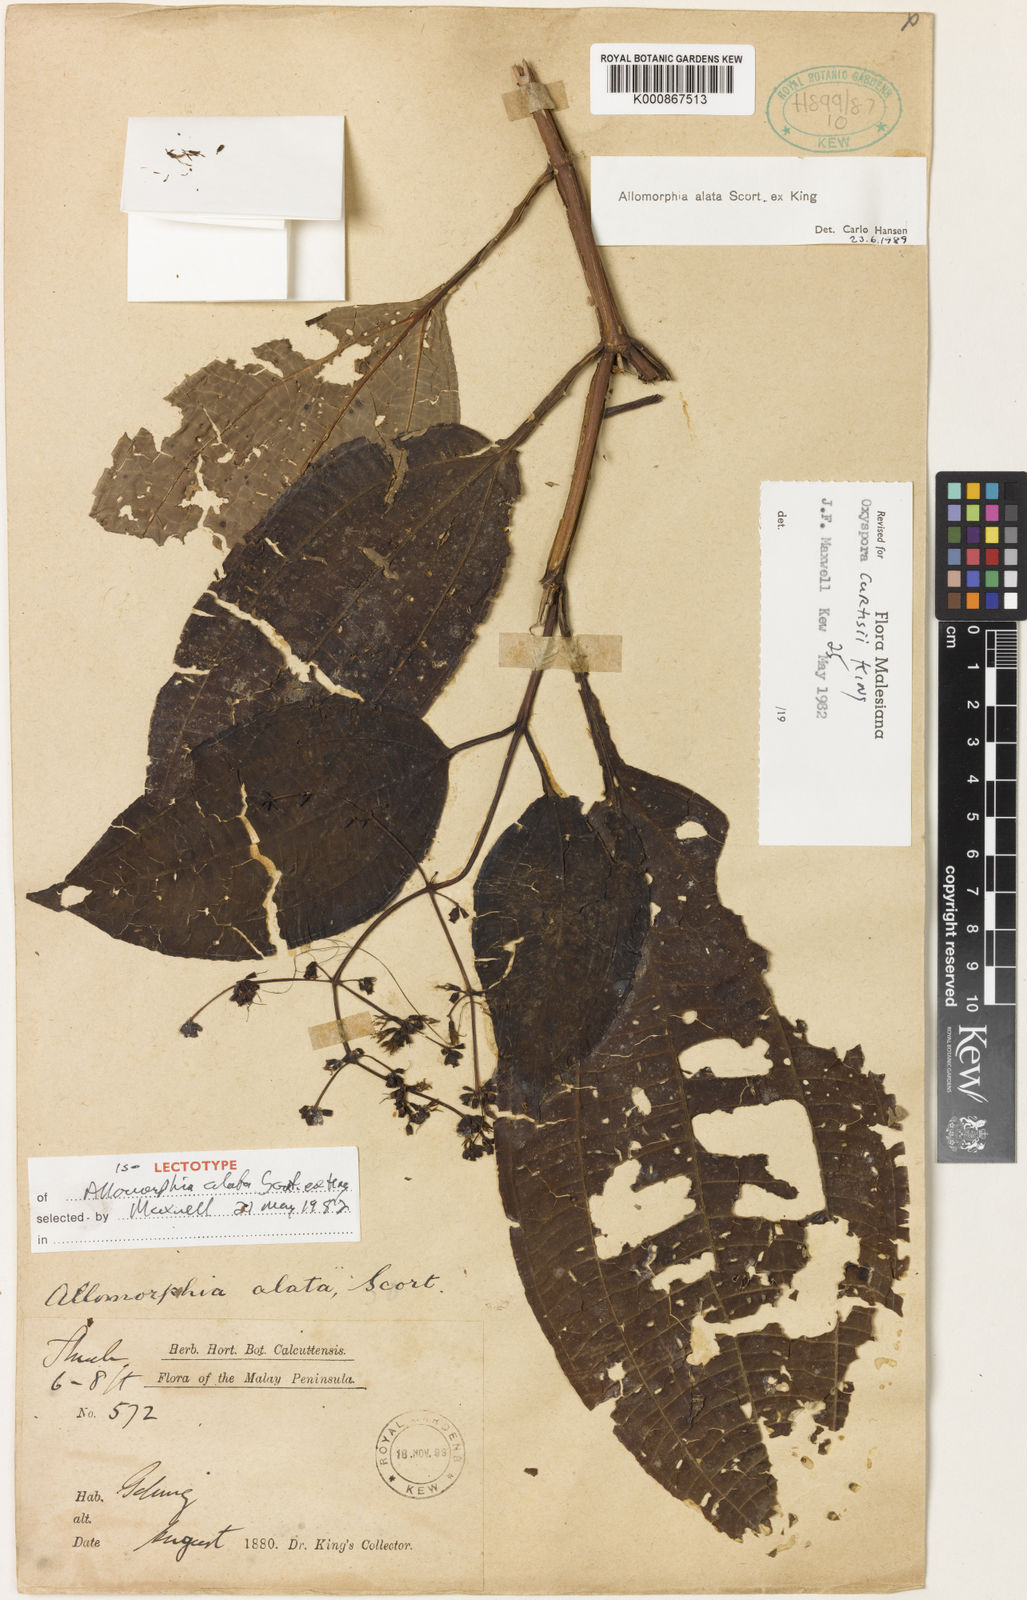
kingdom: Plantae
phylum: Tracheophyta
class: Magnoliopsida
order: Myrtales
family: Melastomataceae
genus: Allomorphia
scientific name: Allomorphia curtisii
